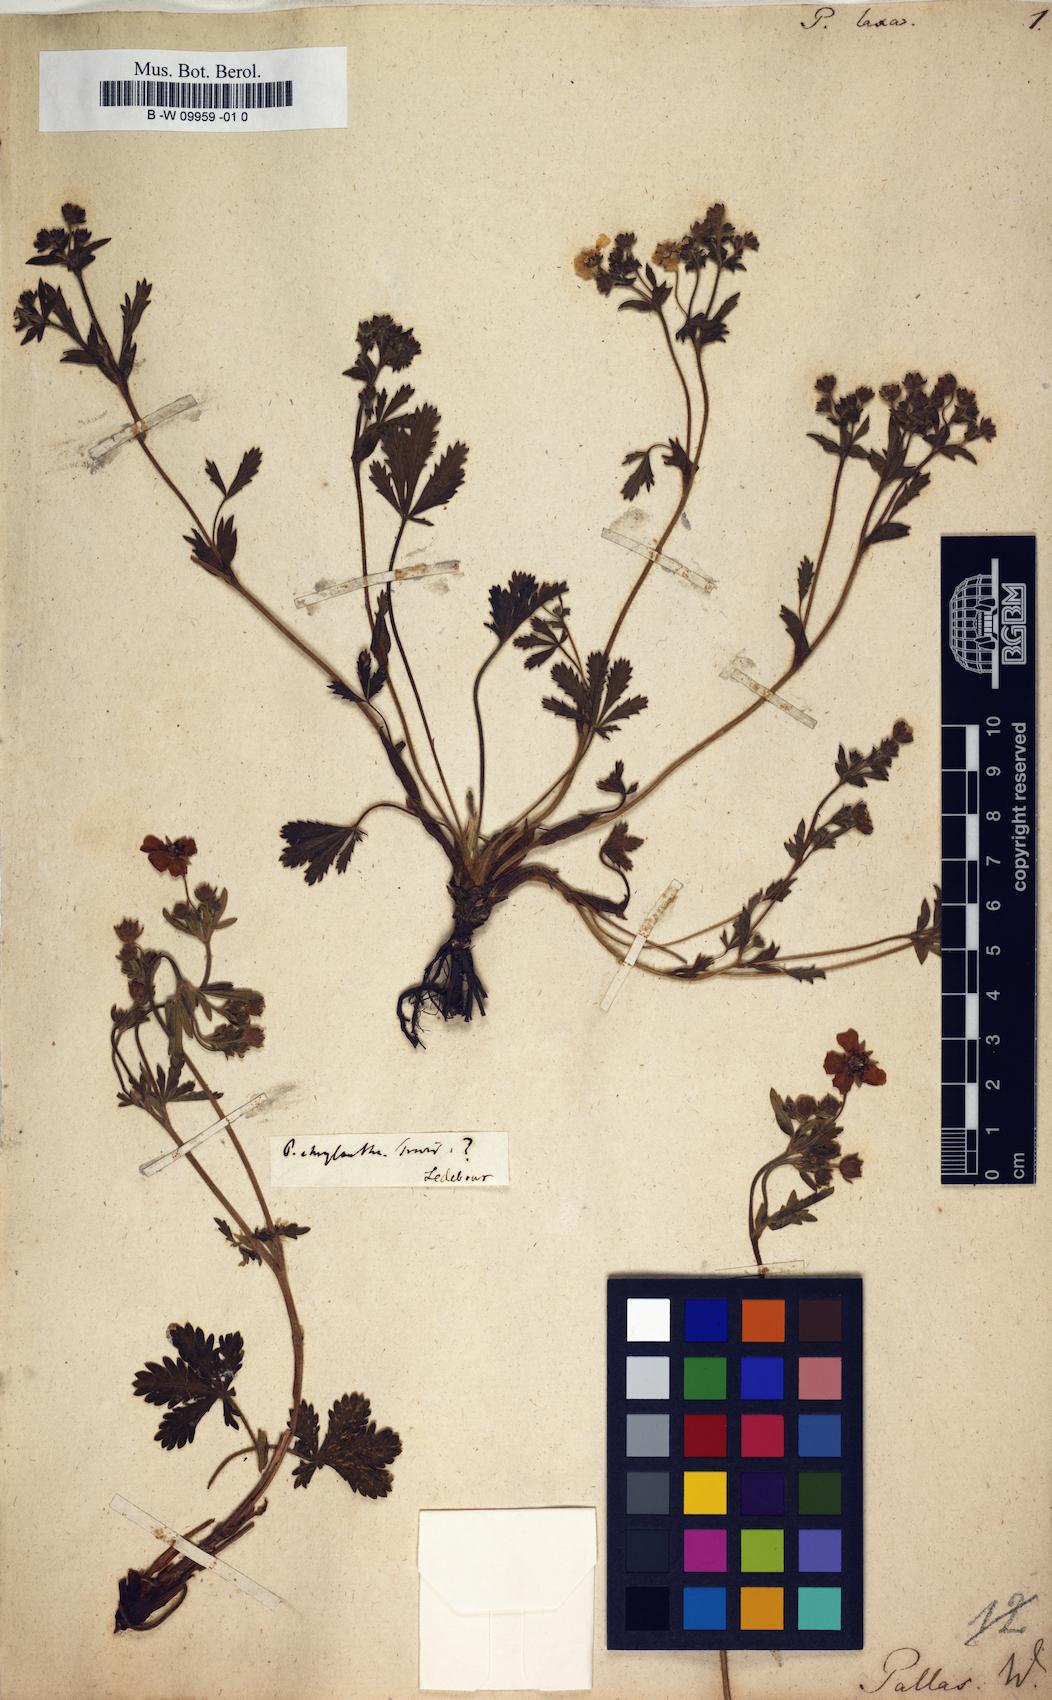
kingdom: Plantae
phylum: Tracheophyta
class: Magnoliopsida
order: Rosales
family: Rosaceae
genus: Potentilla
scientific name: Potentilla humifusa
